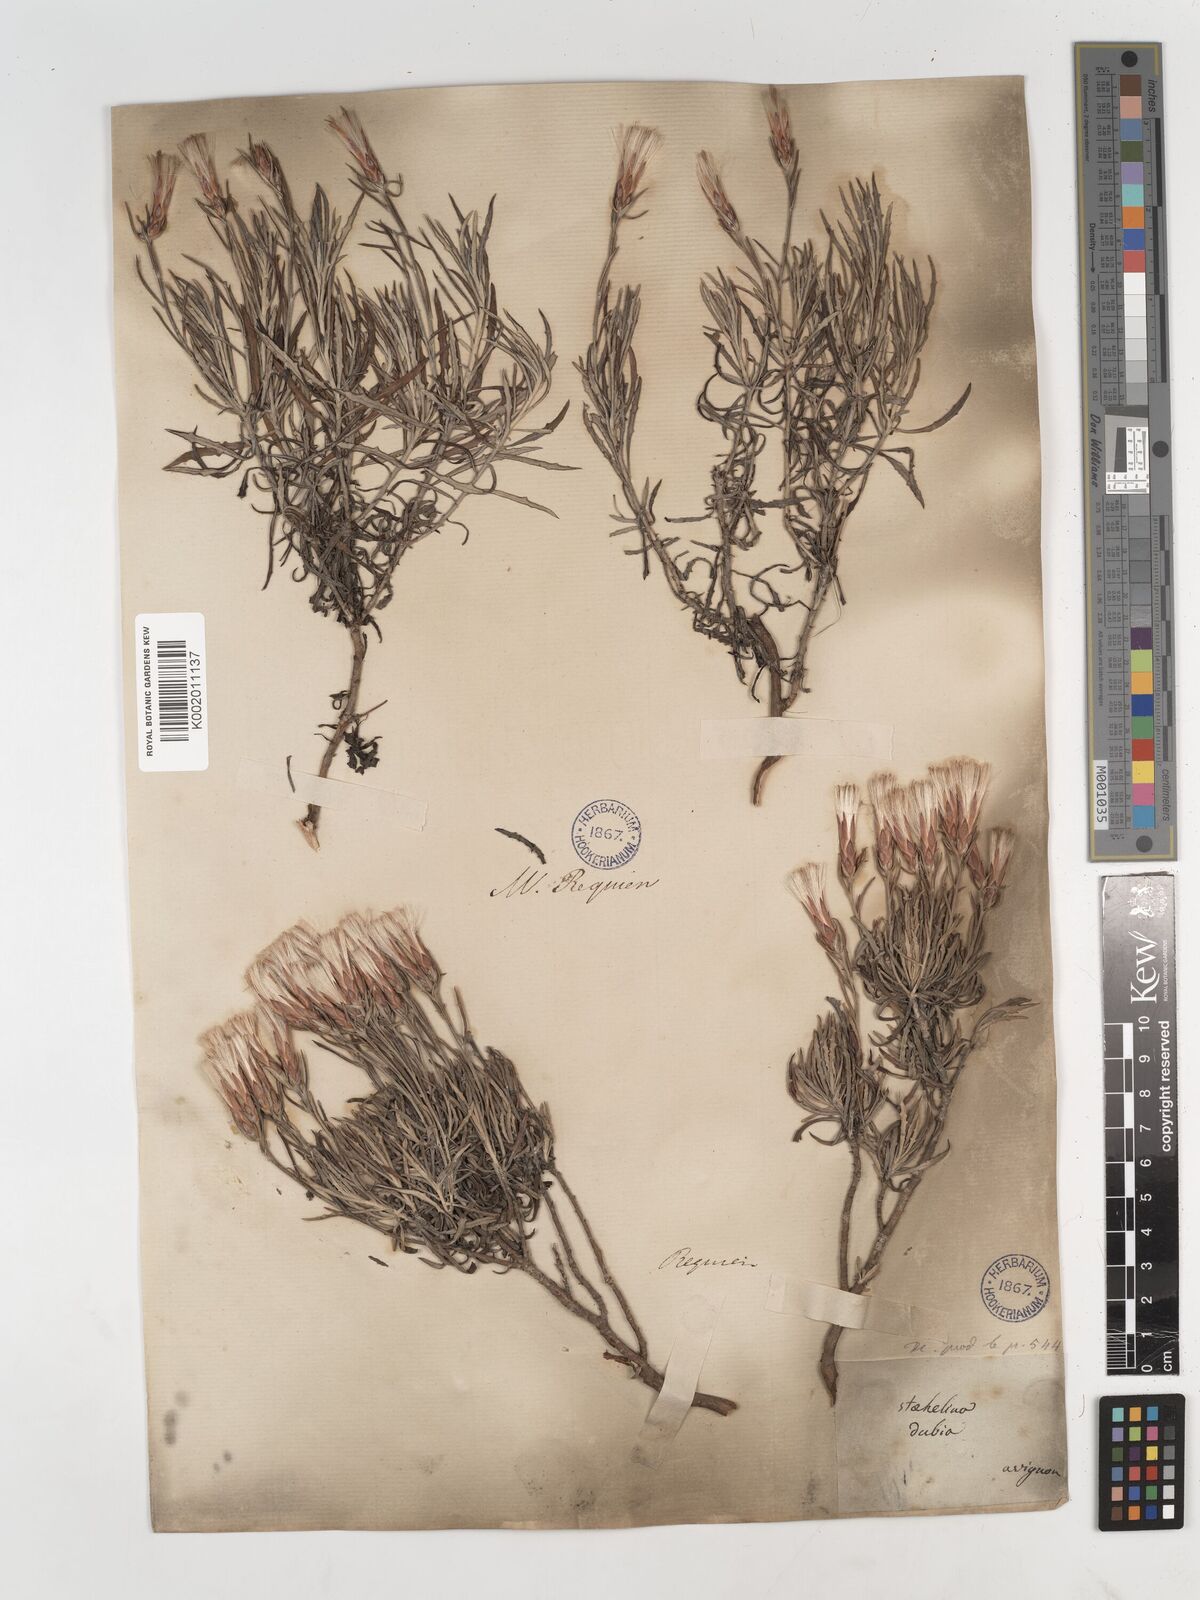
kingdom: Plantae
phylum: Tracheophyta
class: Magnoliopsida
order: Asterales
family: Asteraceae
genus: Staehelina
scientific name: Staehelina dubia
